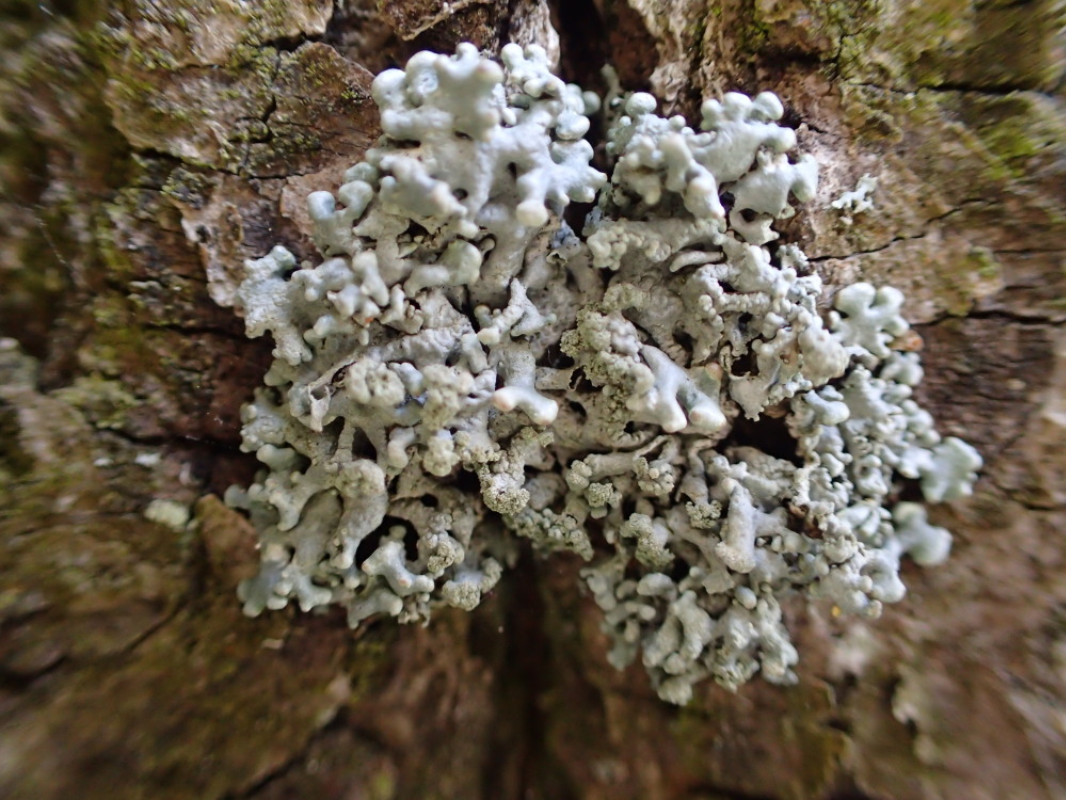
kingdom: Fungi
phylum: Ascomycota
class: Lecanoromycetes
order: Lecanorales
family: Parmeliaceae
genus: Hypogymnia
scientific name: Hypogymnia tubulosa
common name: finger-kvistlav
